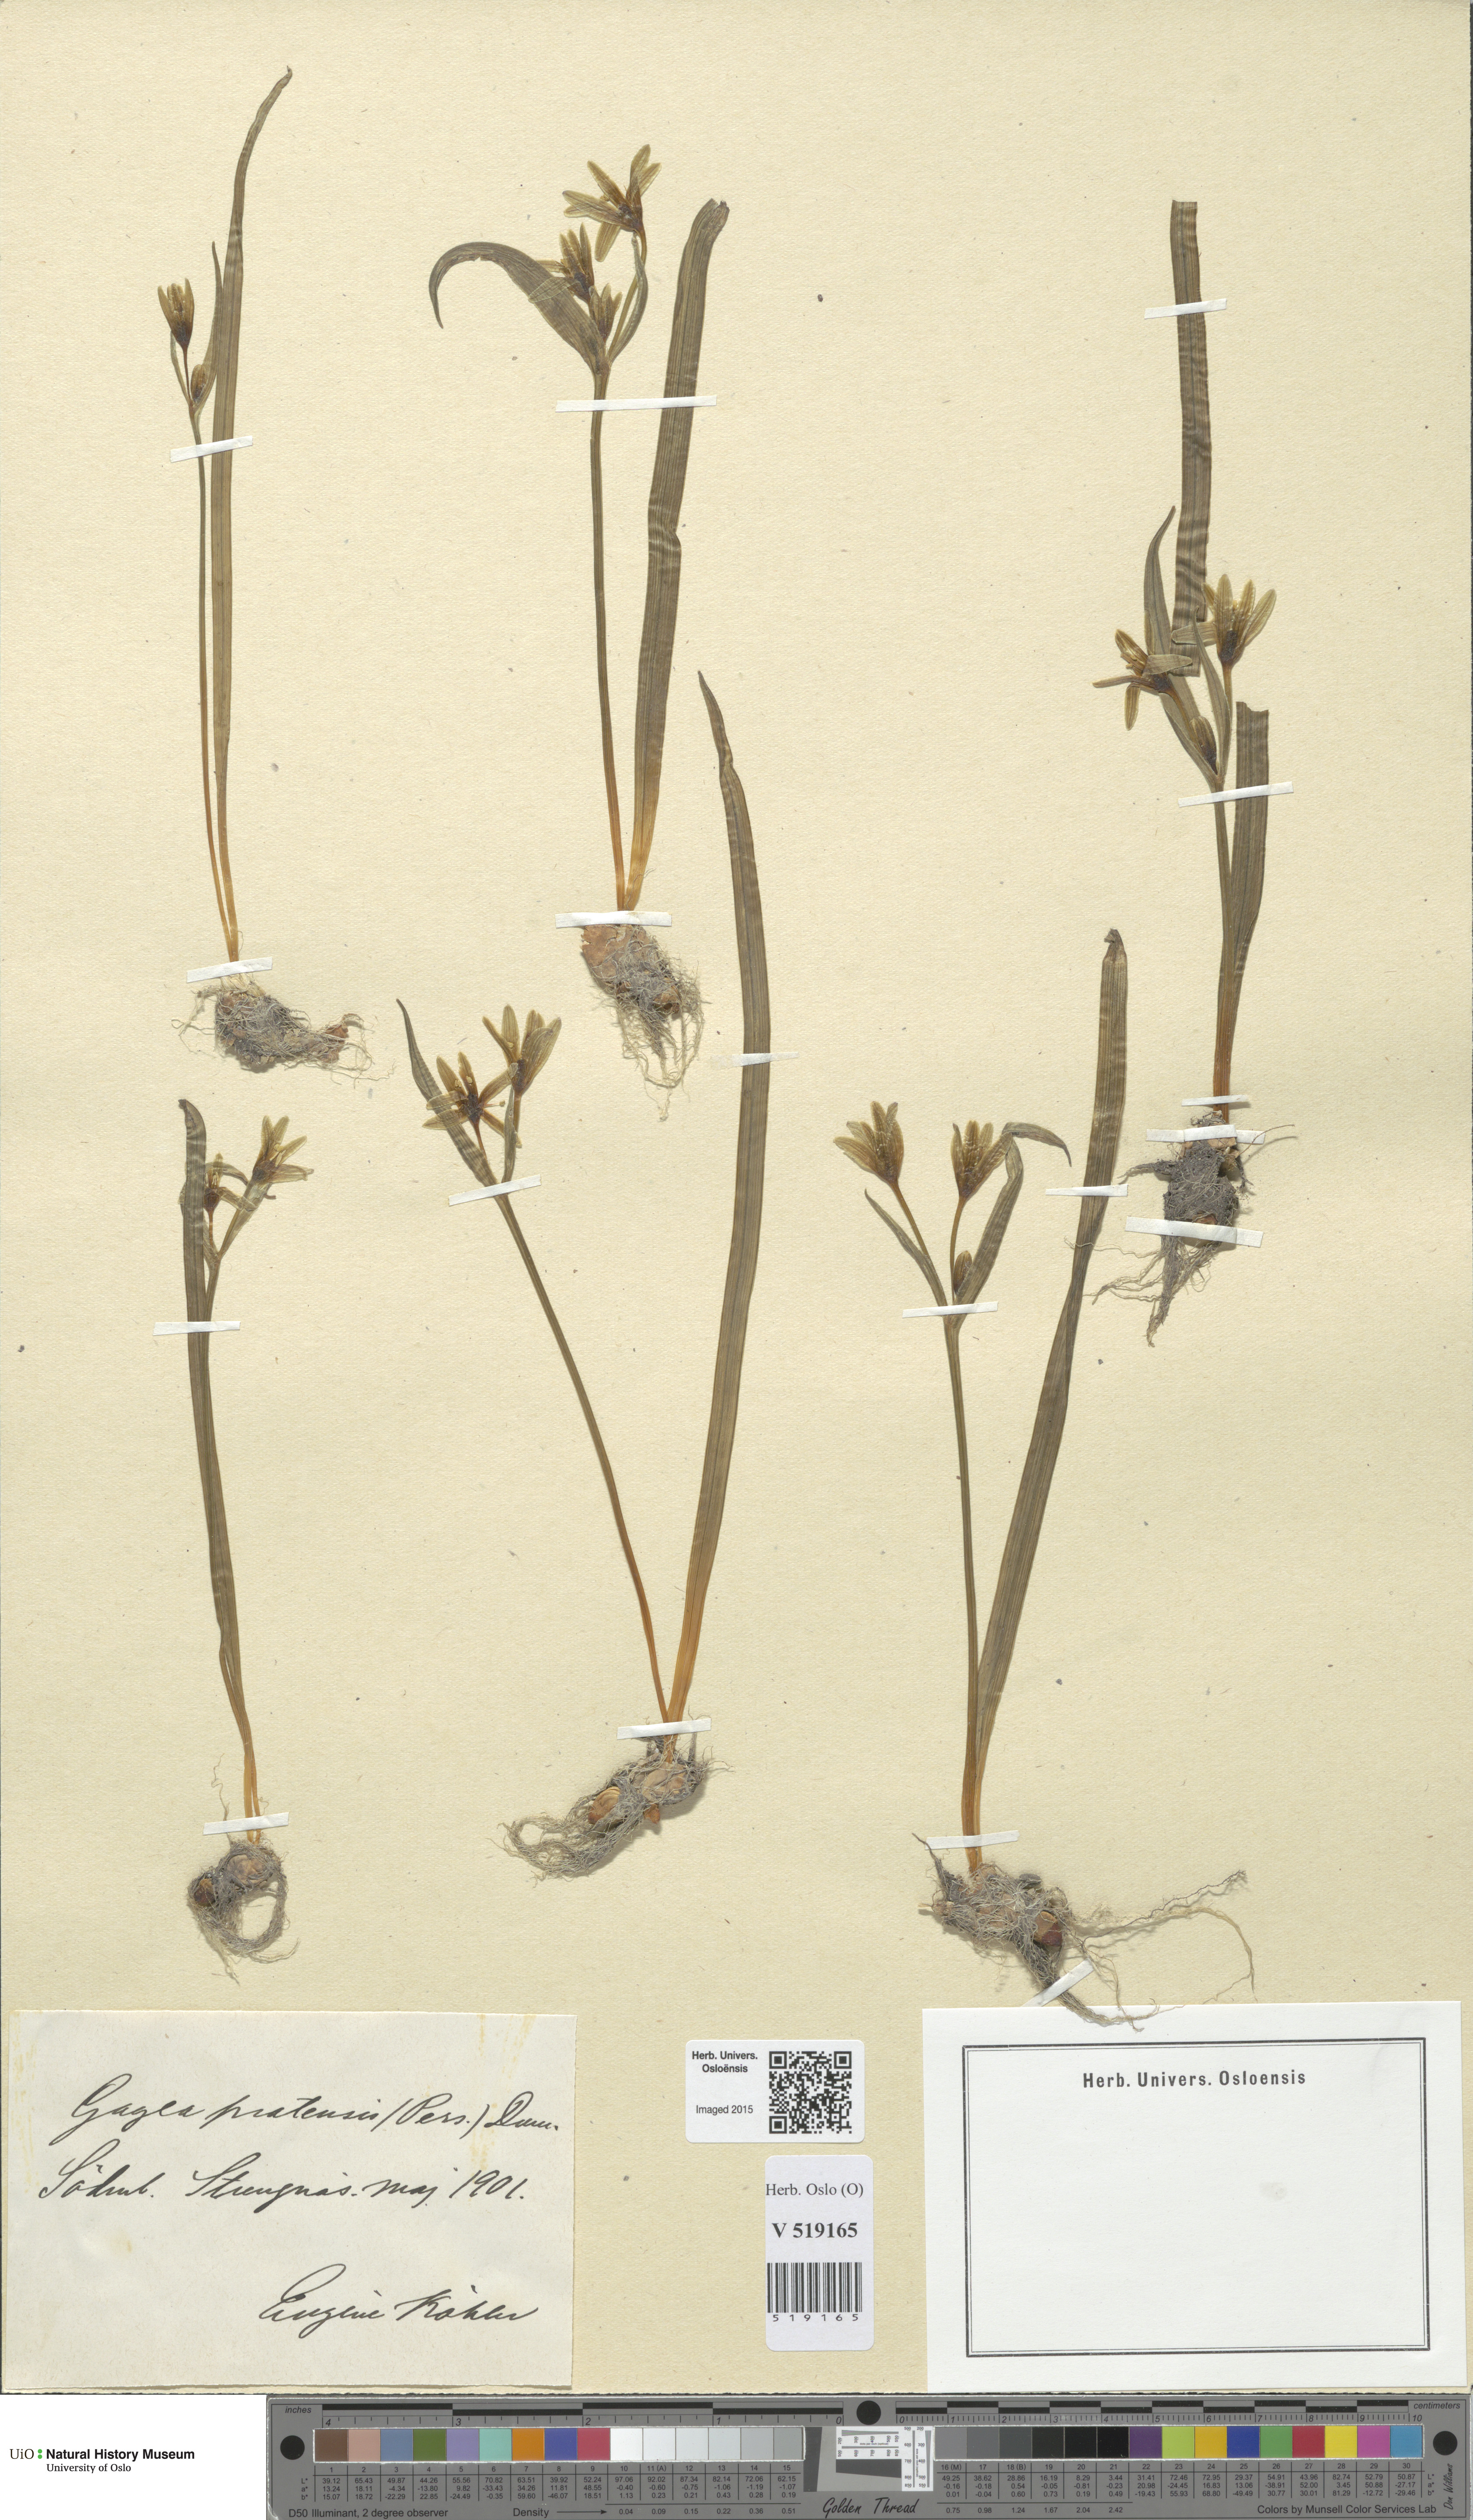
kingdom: Plantae
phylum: Tracheophyta
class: Liliopsida
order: Liliales
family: Liliaceae
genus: Gagea
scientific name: Gagea pratensis
